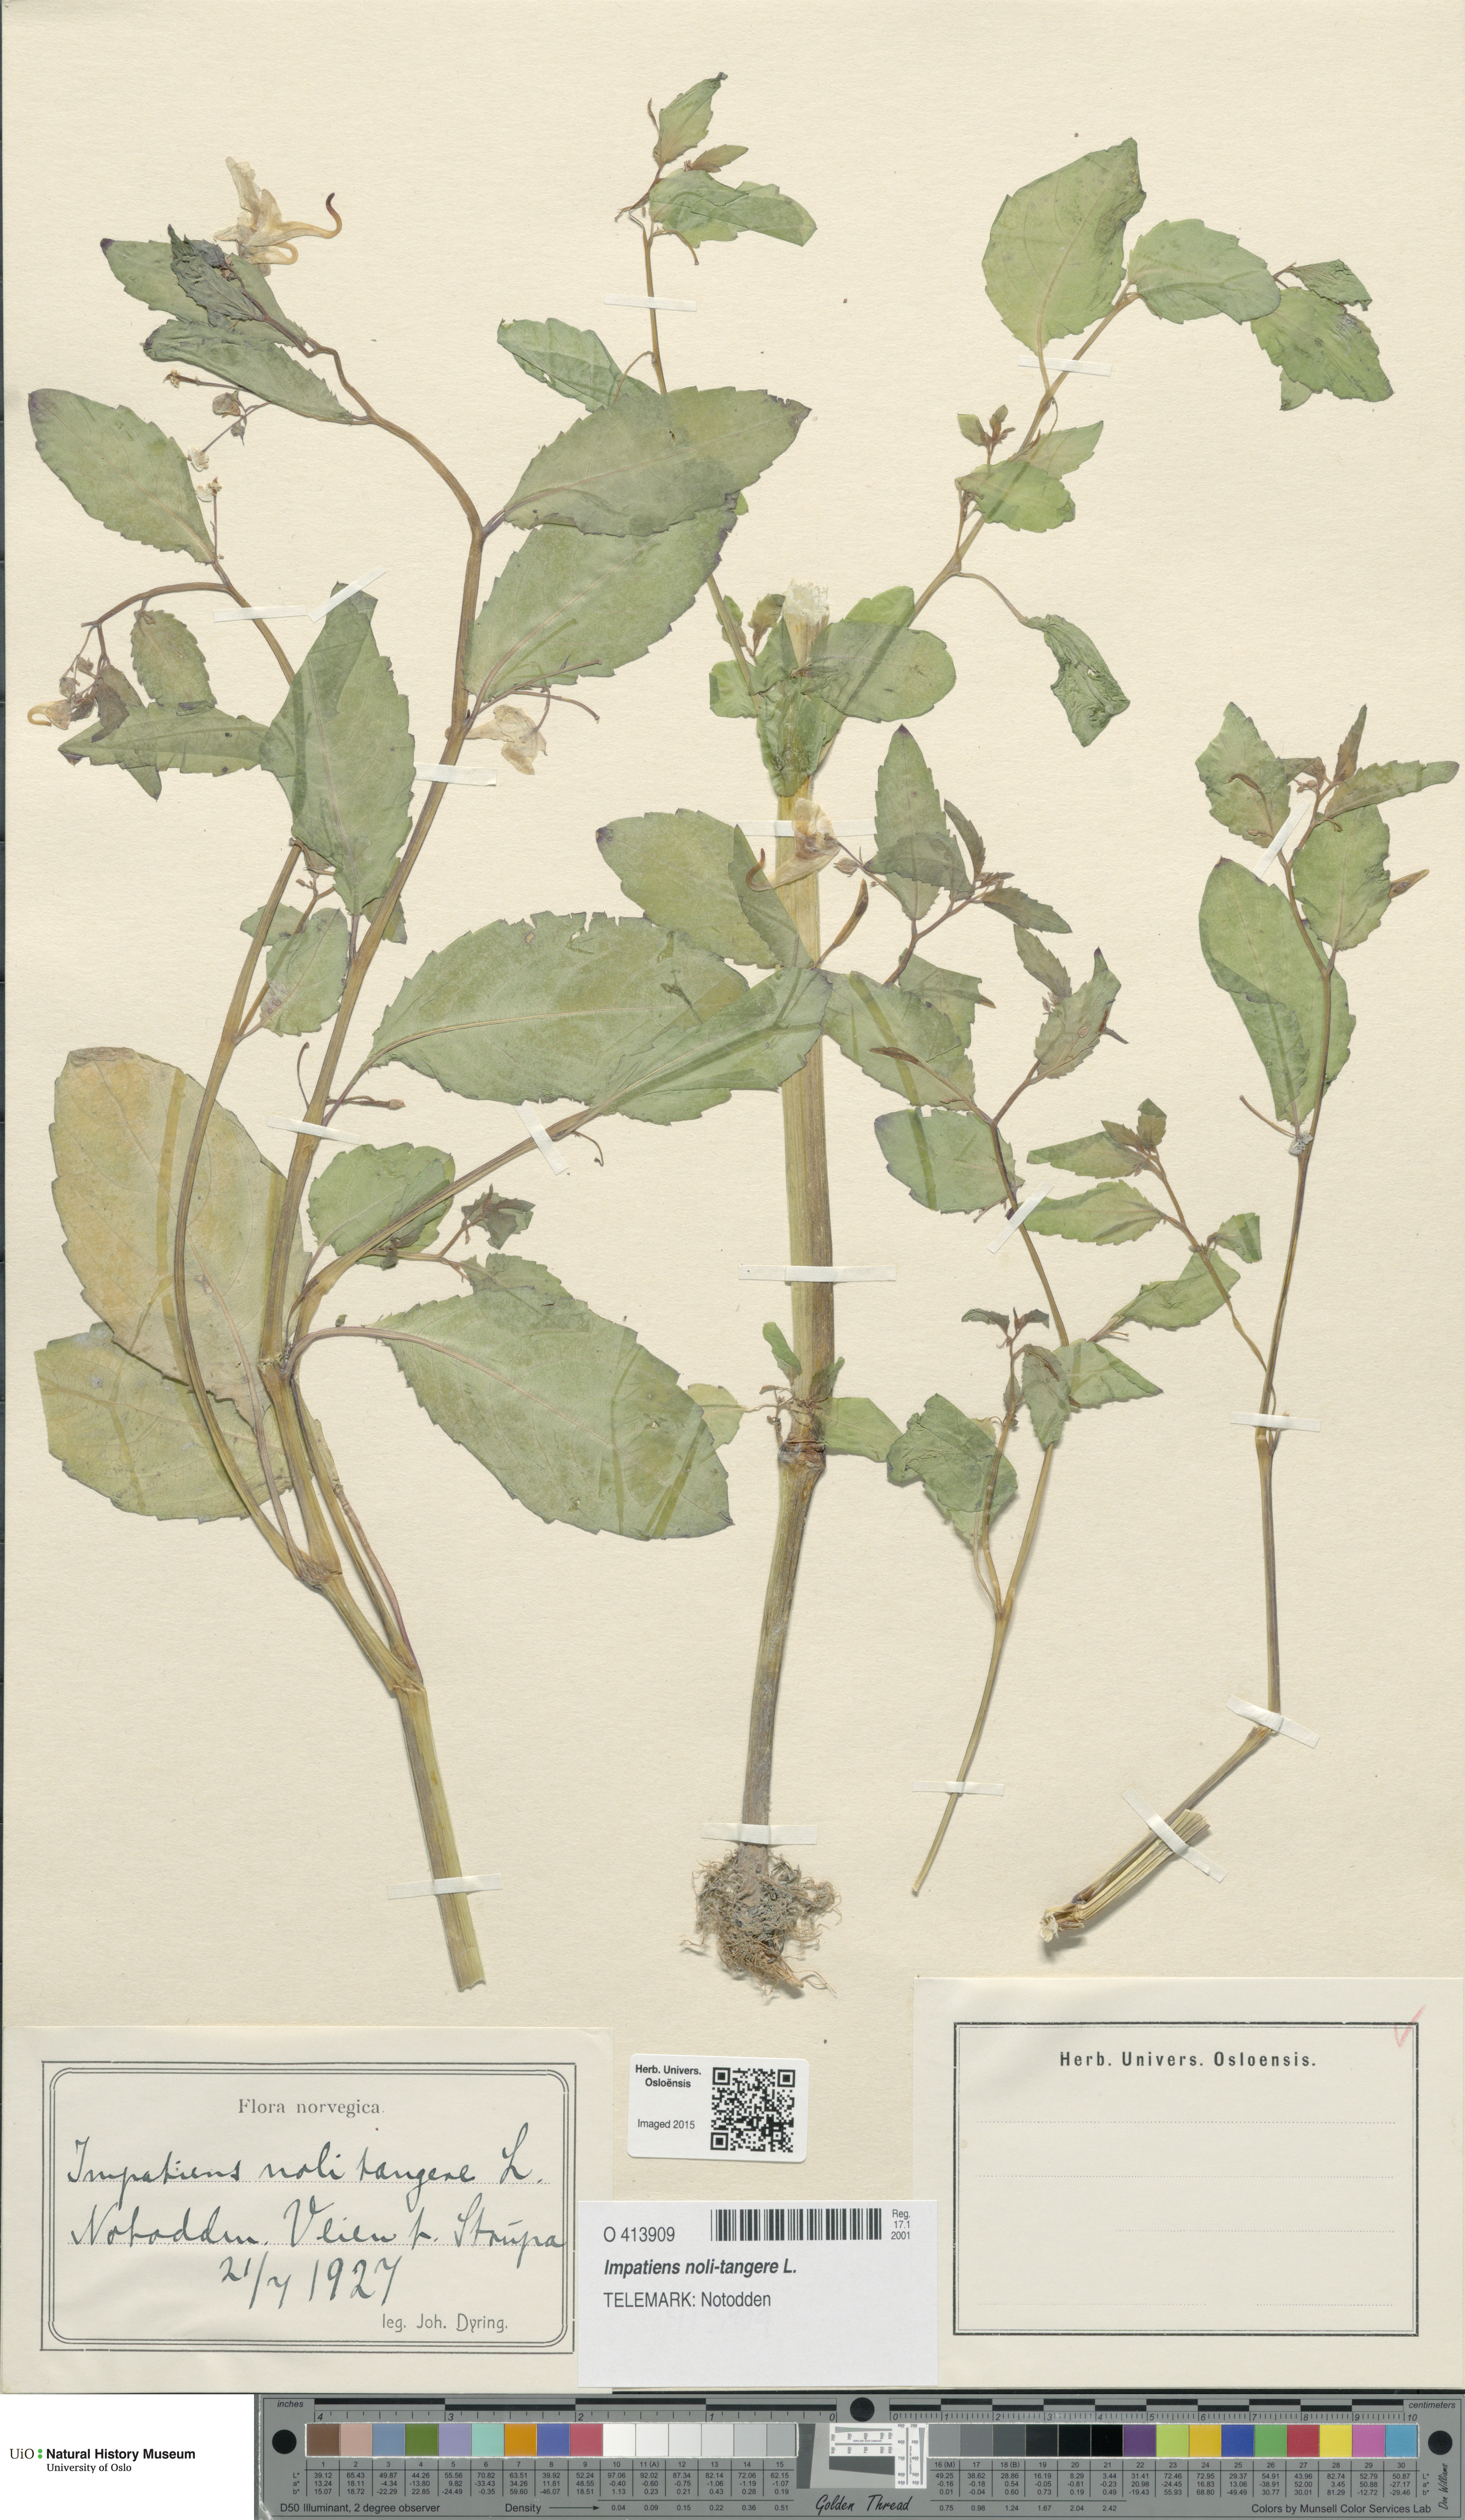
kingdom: Plantae
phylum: Tracheophyta
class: Magnoliopsida
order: Ericales
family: Balsaminaceae
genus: Impatiens
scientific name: Impatiens noli-tangere
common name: Touch-me-not balsam
